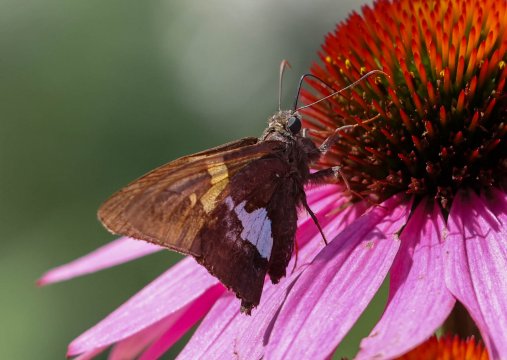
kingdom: Animalia
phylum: Arthropoda
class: Insecta
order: Lepidoptera
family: Hesperiidae
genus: Epargyreus
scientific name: Epargyreus clarus
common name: Silver-spotted Skipper
